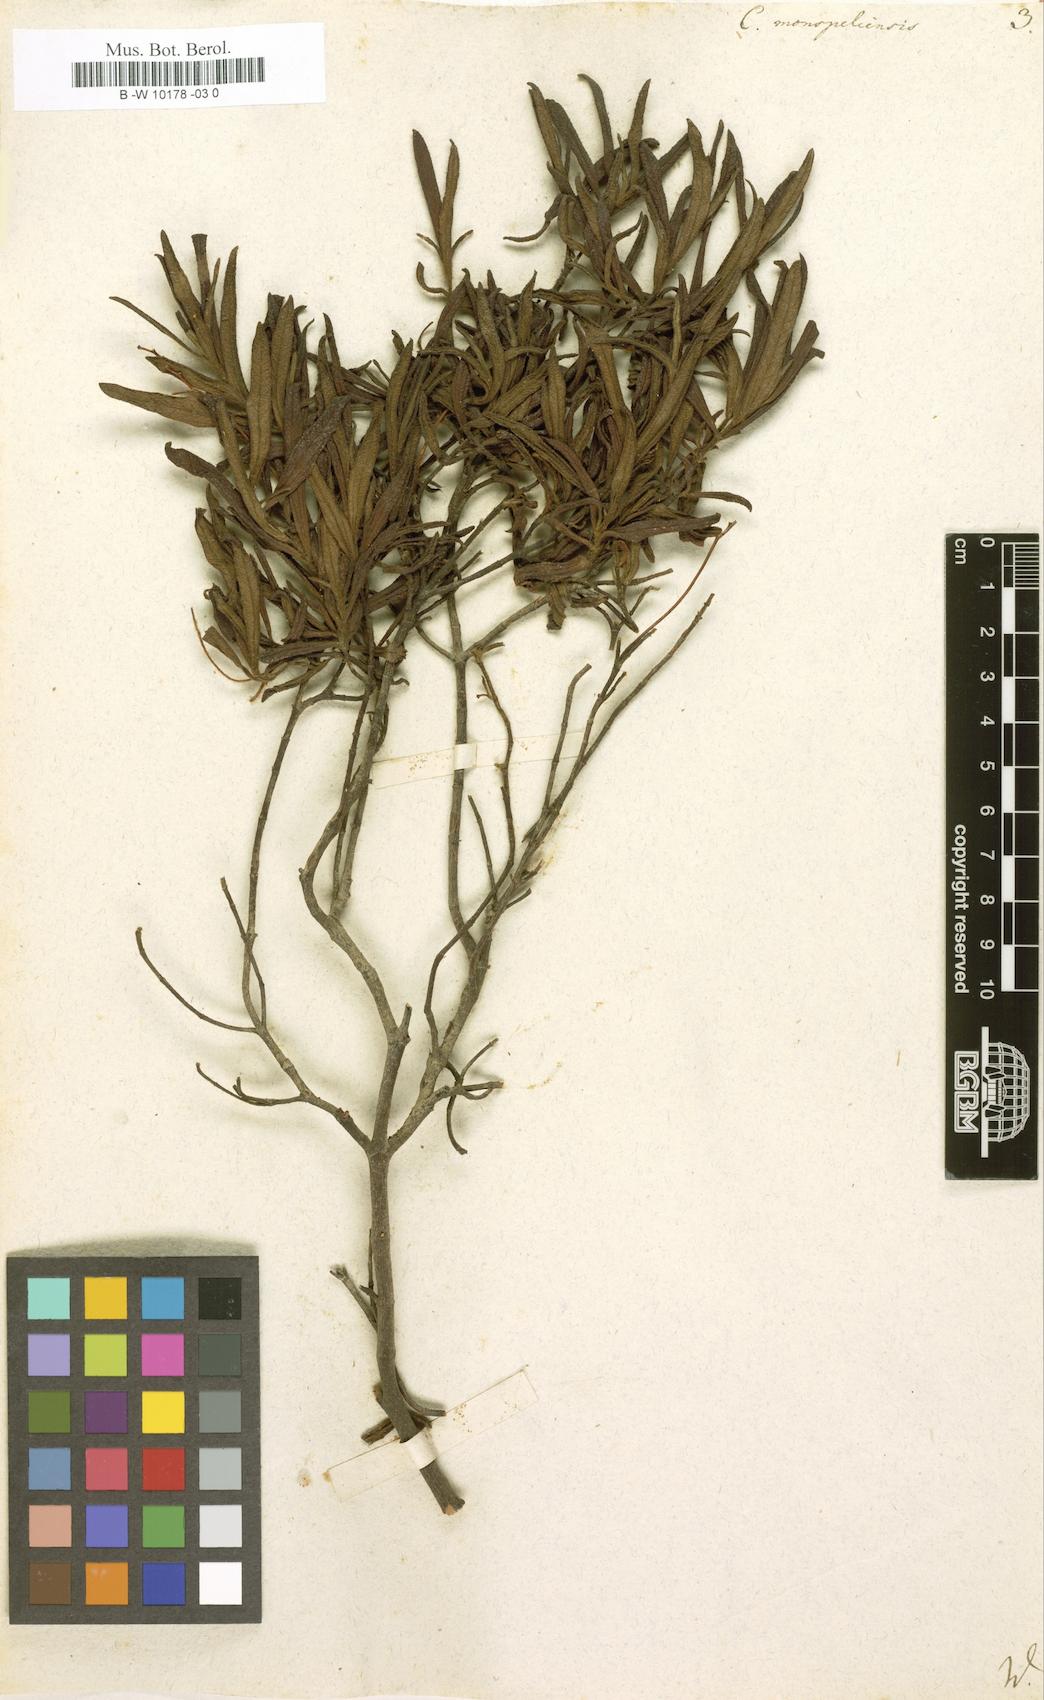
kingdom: Plantae
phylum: Tracheophyta
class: Magnoliopsida
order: Malvales
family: Cistaceae
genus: Cistus
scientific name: Cistus monspeliensis
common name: Montpelier cistus
